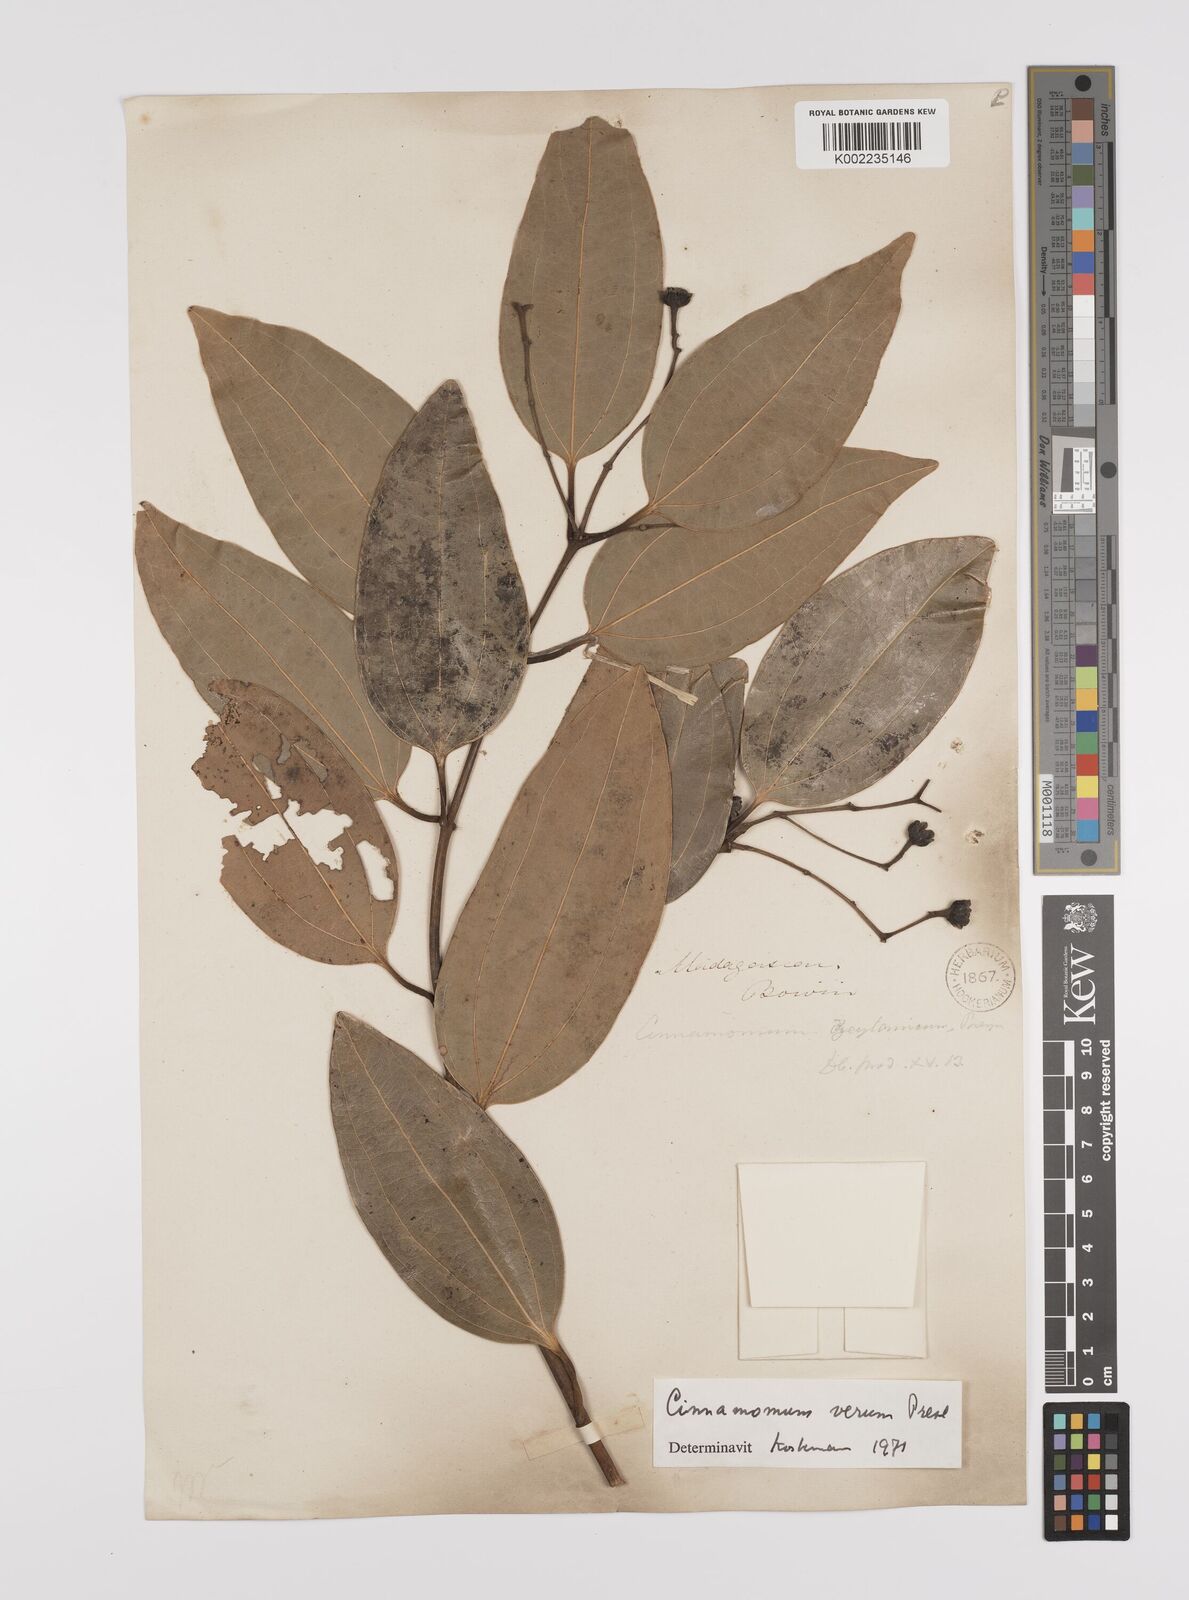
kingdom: Plantae
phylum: Tracheophyta
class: Magnoliopsida
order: Laurales
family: Lauraceae
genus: Cinnamomum
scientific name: Cinnamomum verum
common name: Cinnamon
